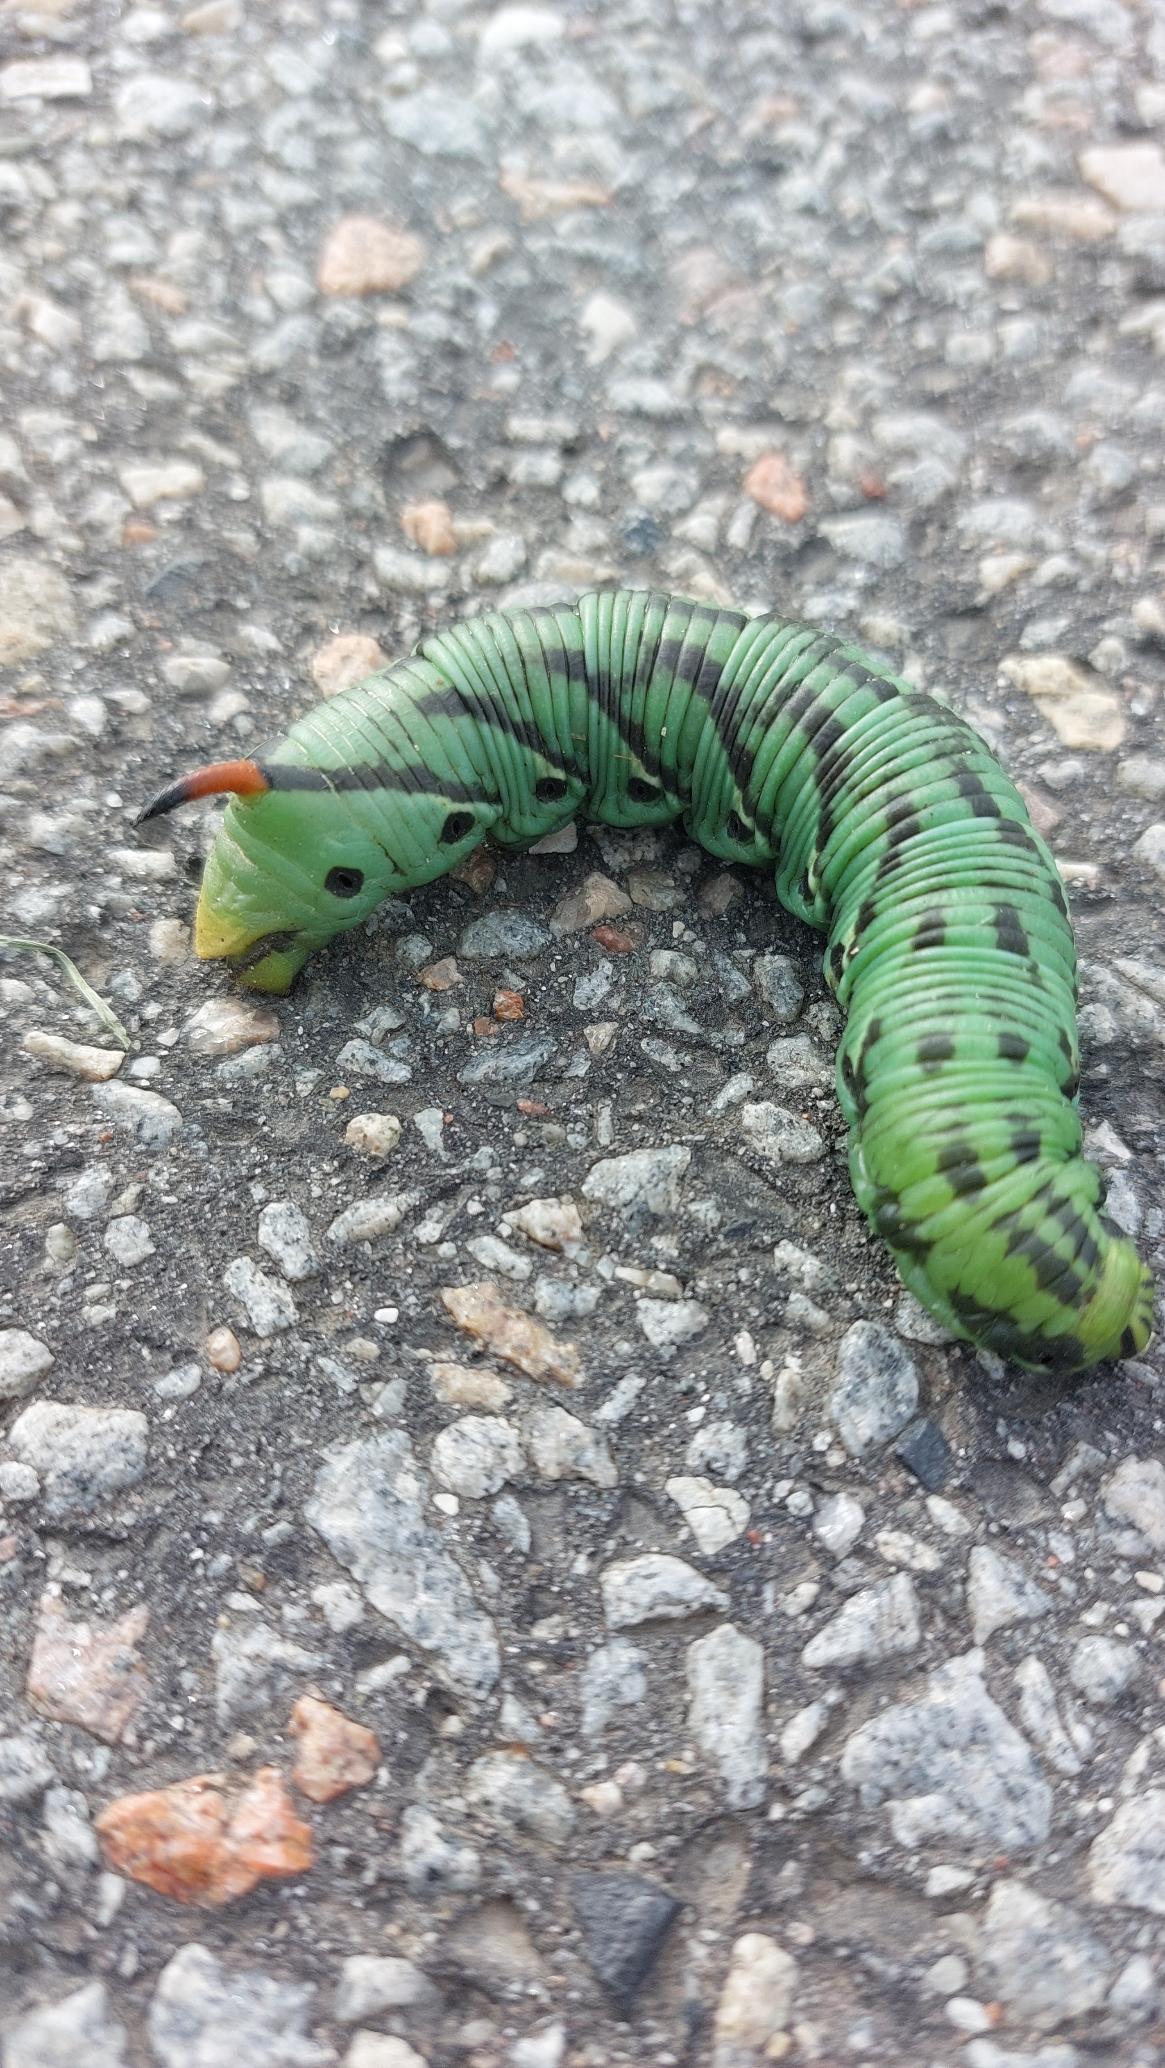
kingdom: Animalia
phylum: Arthropoda
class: Insecta
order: Lepidoptera
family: Sphingidae
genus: Agrius
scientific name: Agrius convolvuli
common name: Snerlesværmer
